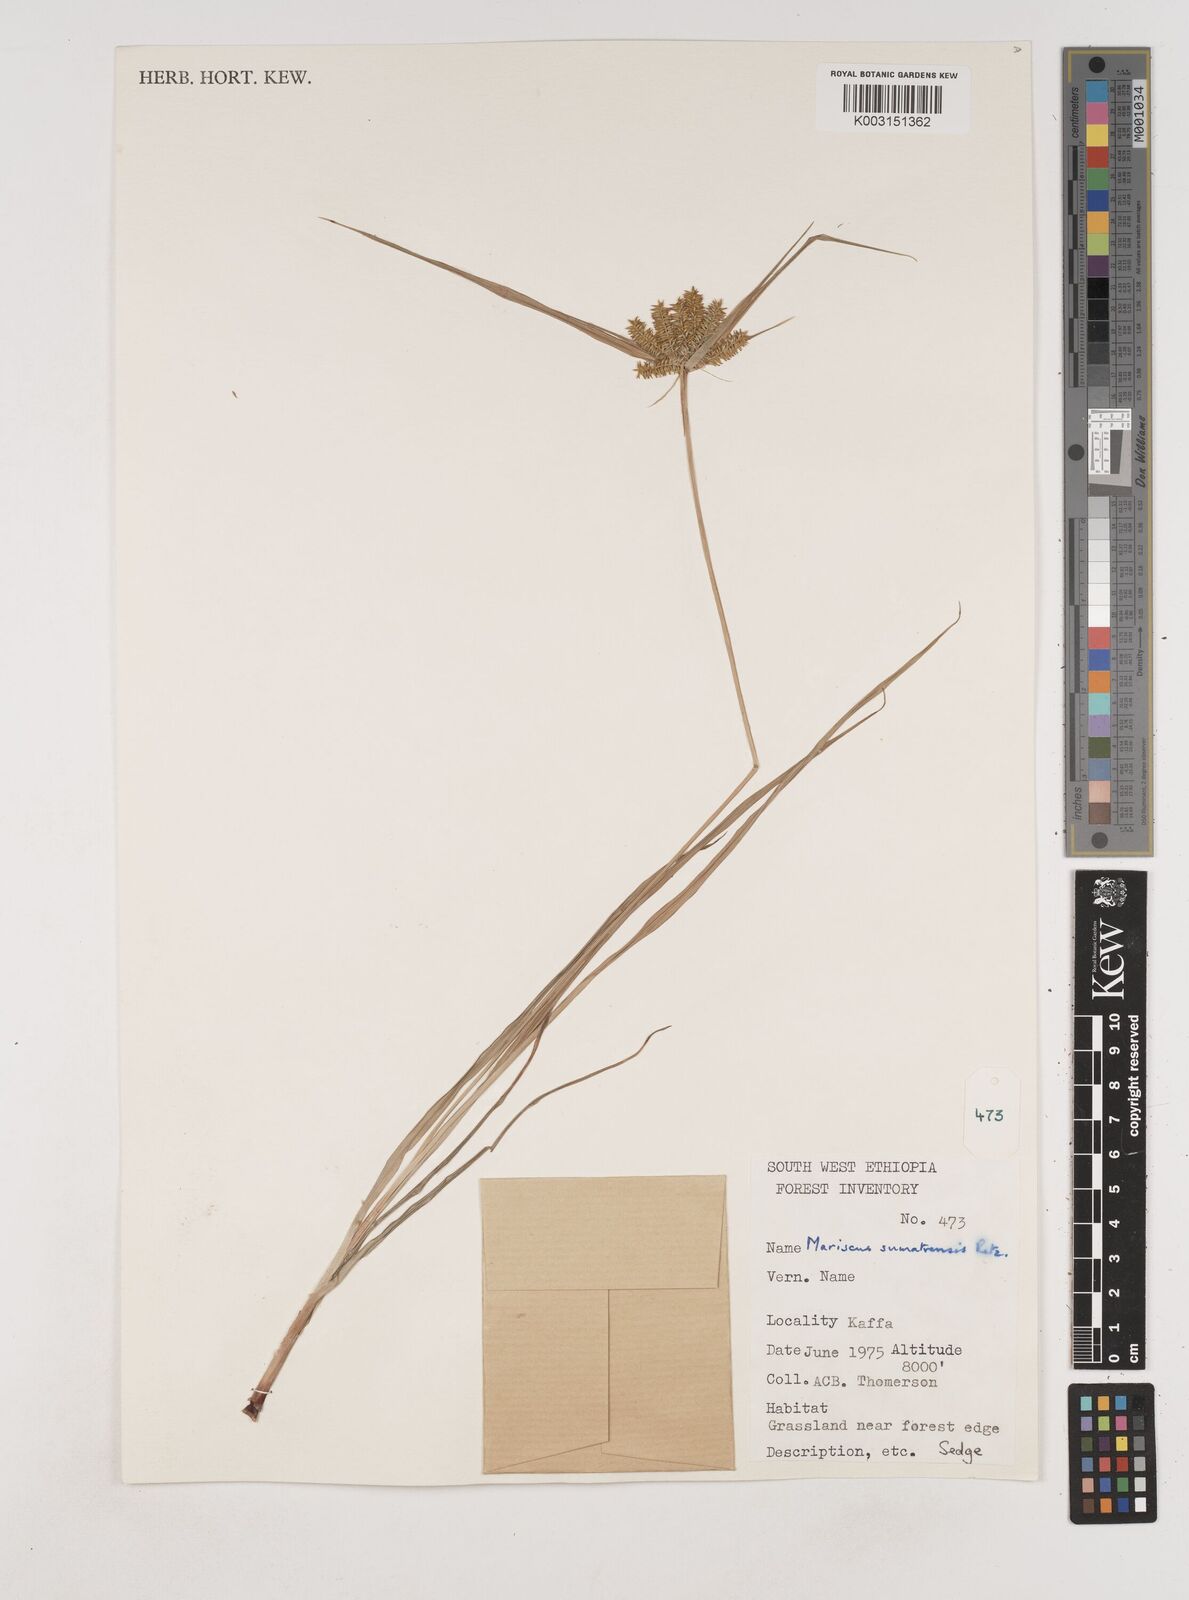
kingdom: Plantae
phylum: Tracheophyta
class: Liliopsida
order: Poales
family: Cyperaceae
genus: Cyperus
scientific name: Cyperus cyperoides
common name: Pacific island flat sedge
